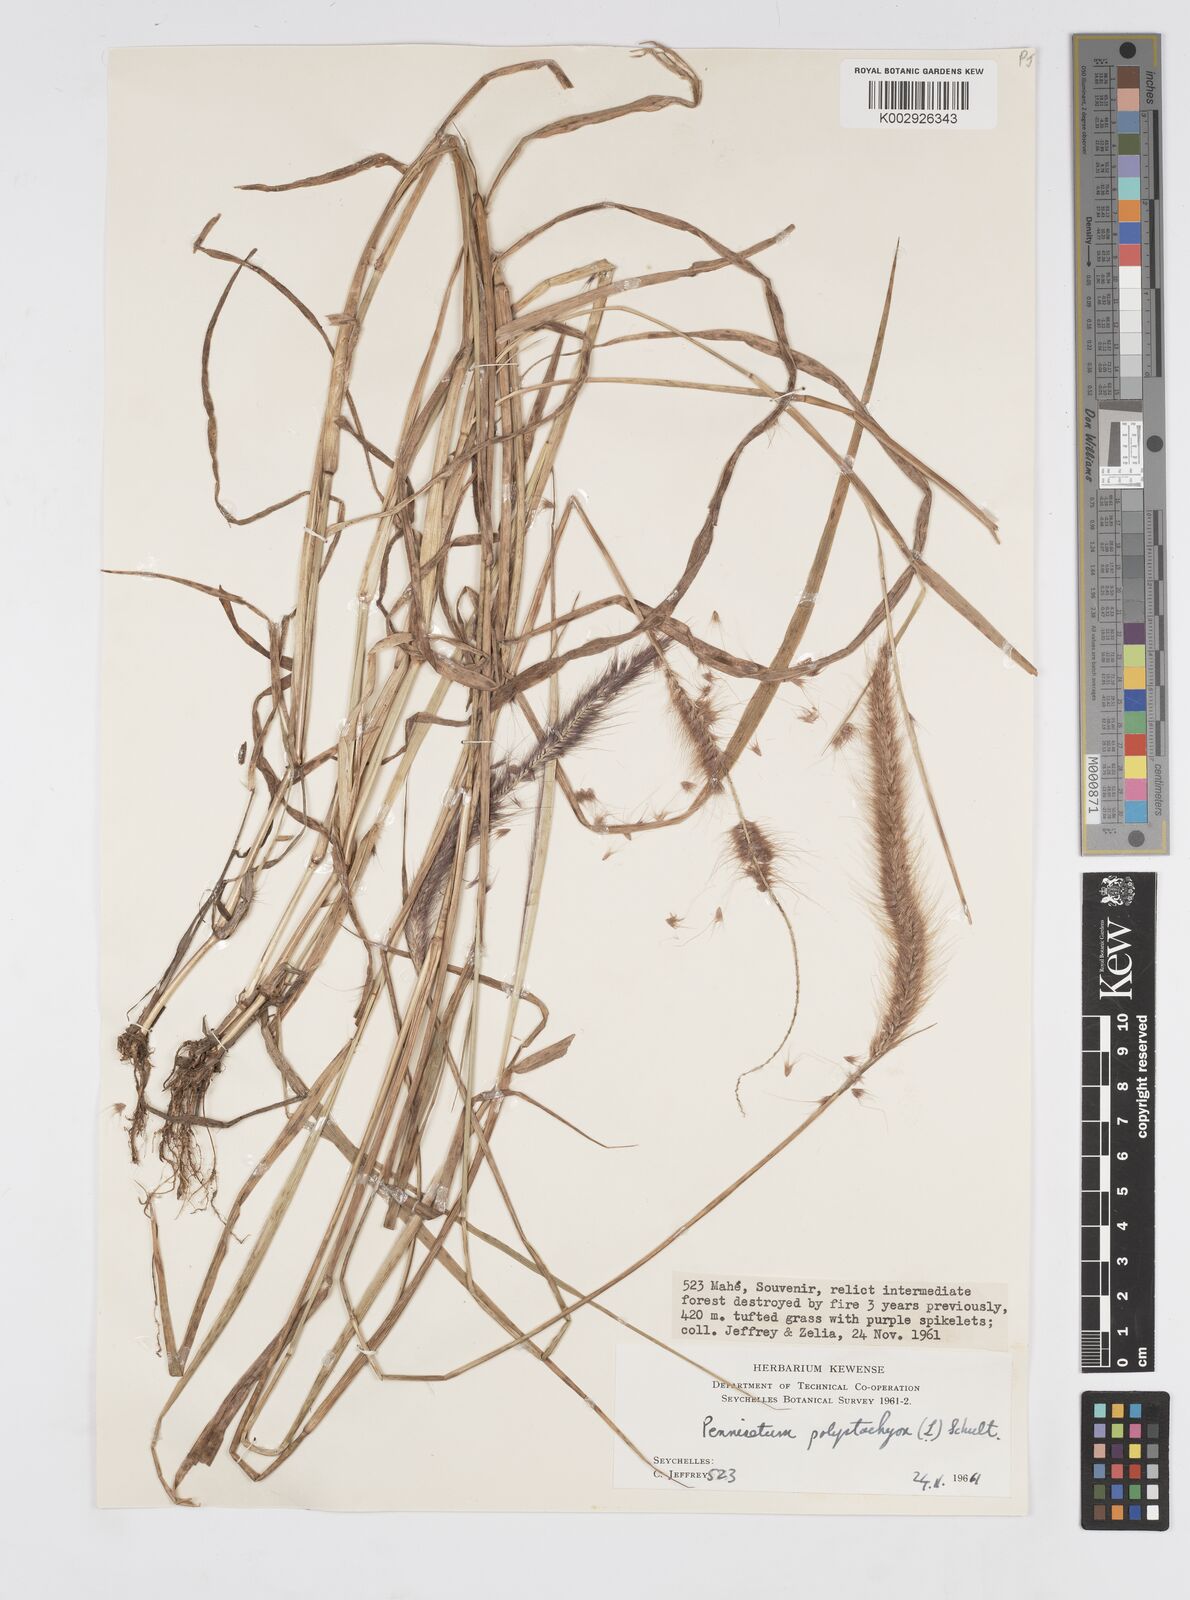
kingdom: Plantae
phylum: Tracheophyta
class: Liliopsida
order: Poales
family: Poaceae
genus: Setaria
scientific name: Setaria parviflora
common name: Knotroot bristle-grass
